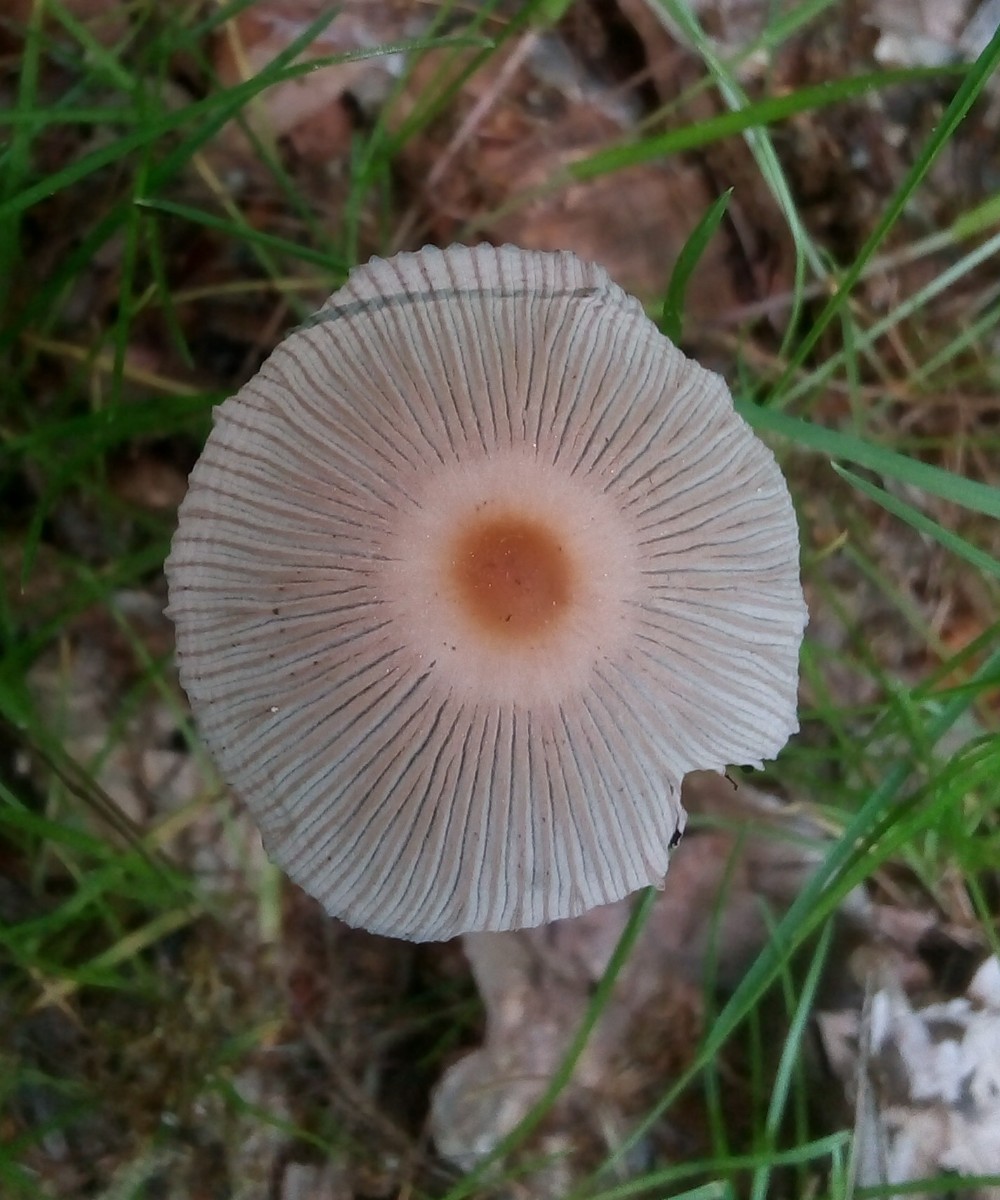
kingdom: Fungi
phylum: Basidiomycota
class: Agaricomycetes
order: Agaricales
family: Psathyrellaceae
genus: Parasola
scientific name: Parasola
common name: hjulhat
